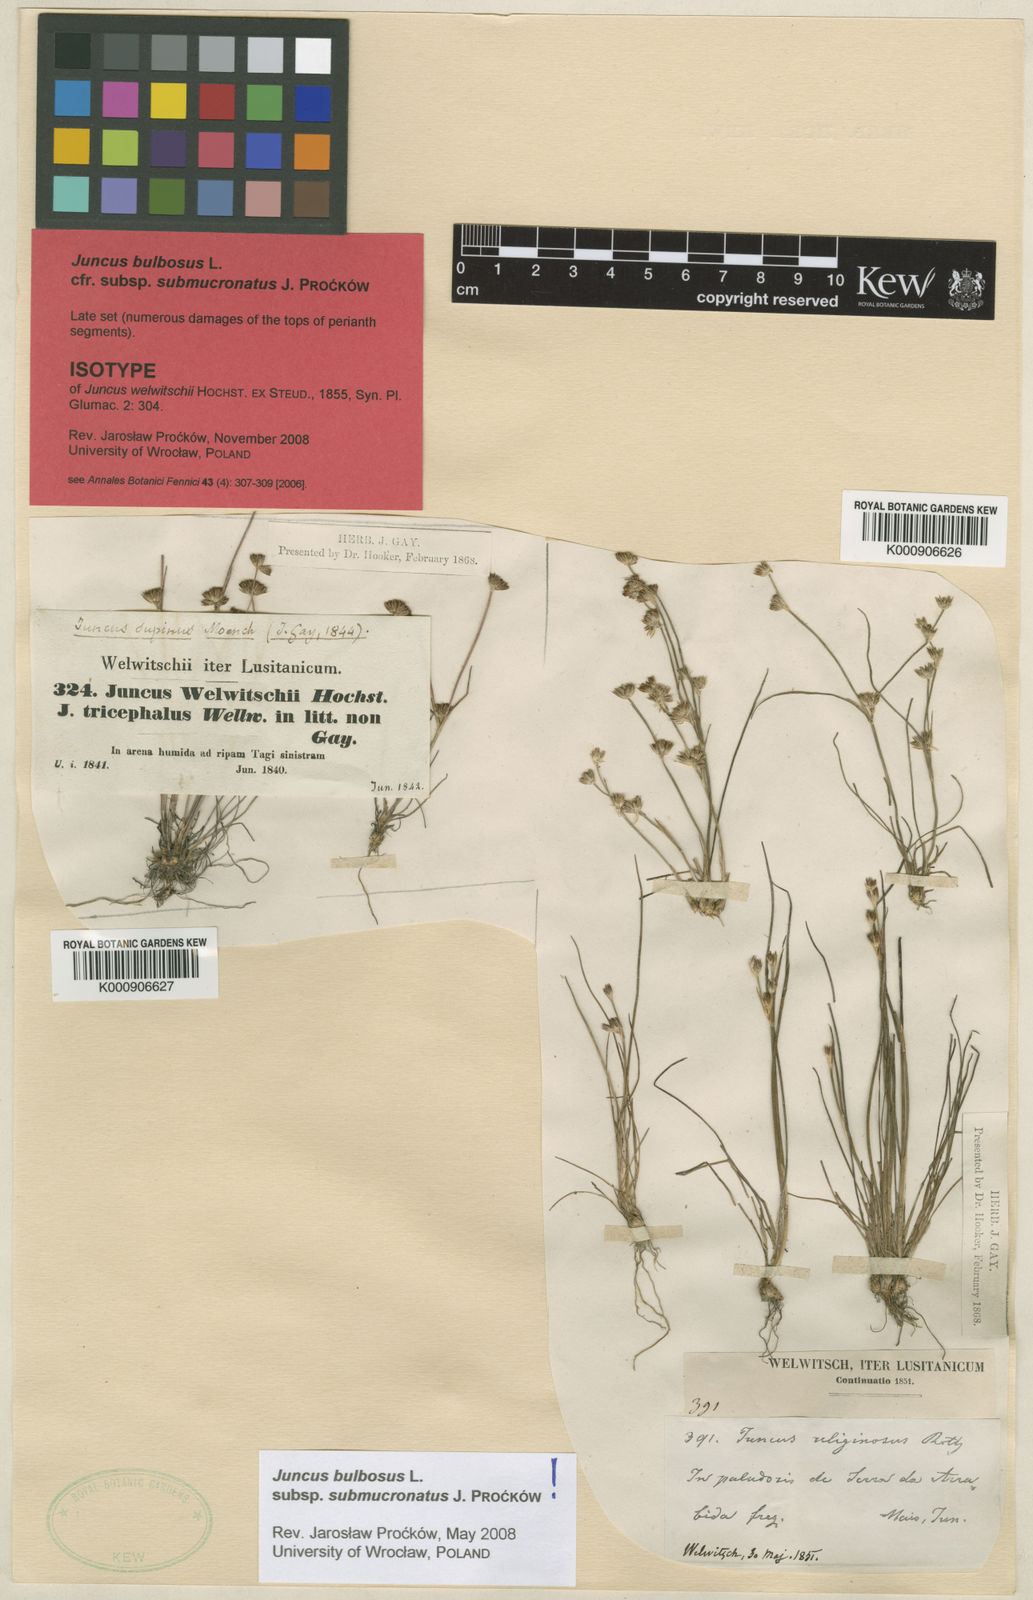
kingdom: Plantae
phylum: Tracheophyta
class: Liliopsida
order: Poales
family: Juncaceae
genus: Juncus
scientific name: Juncus bulbosus
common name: Bulbous rush
